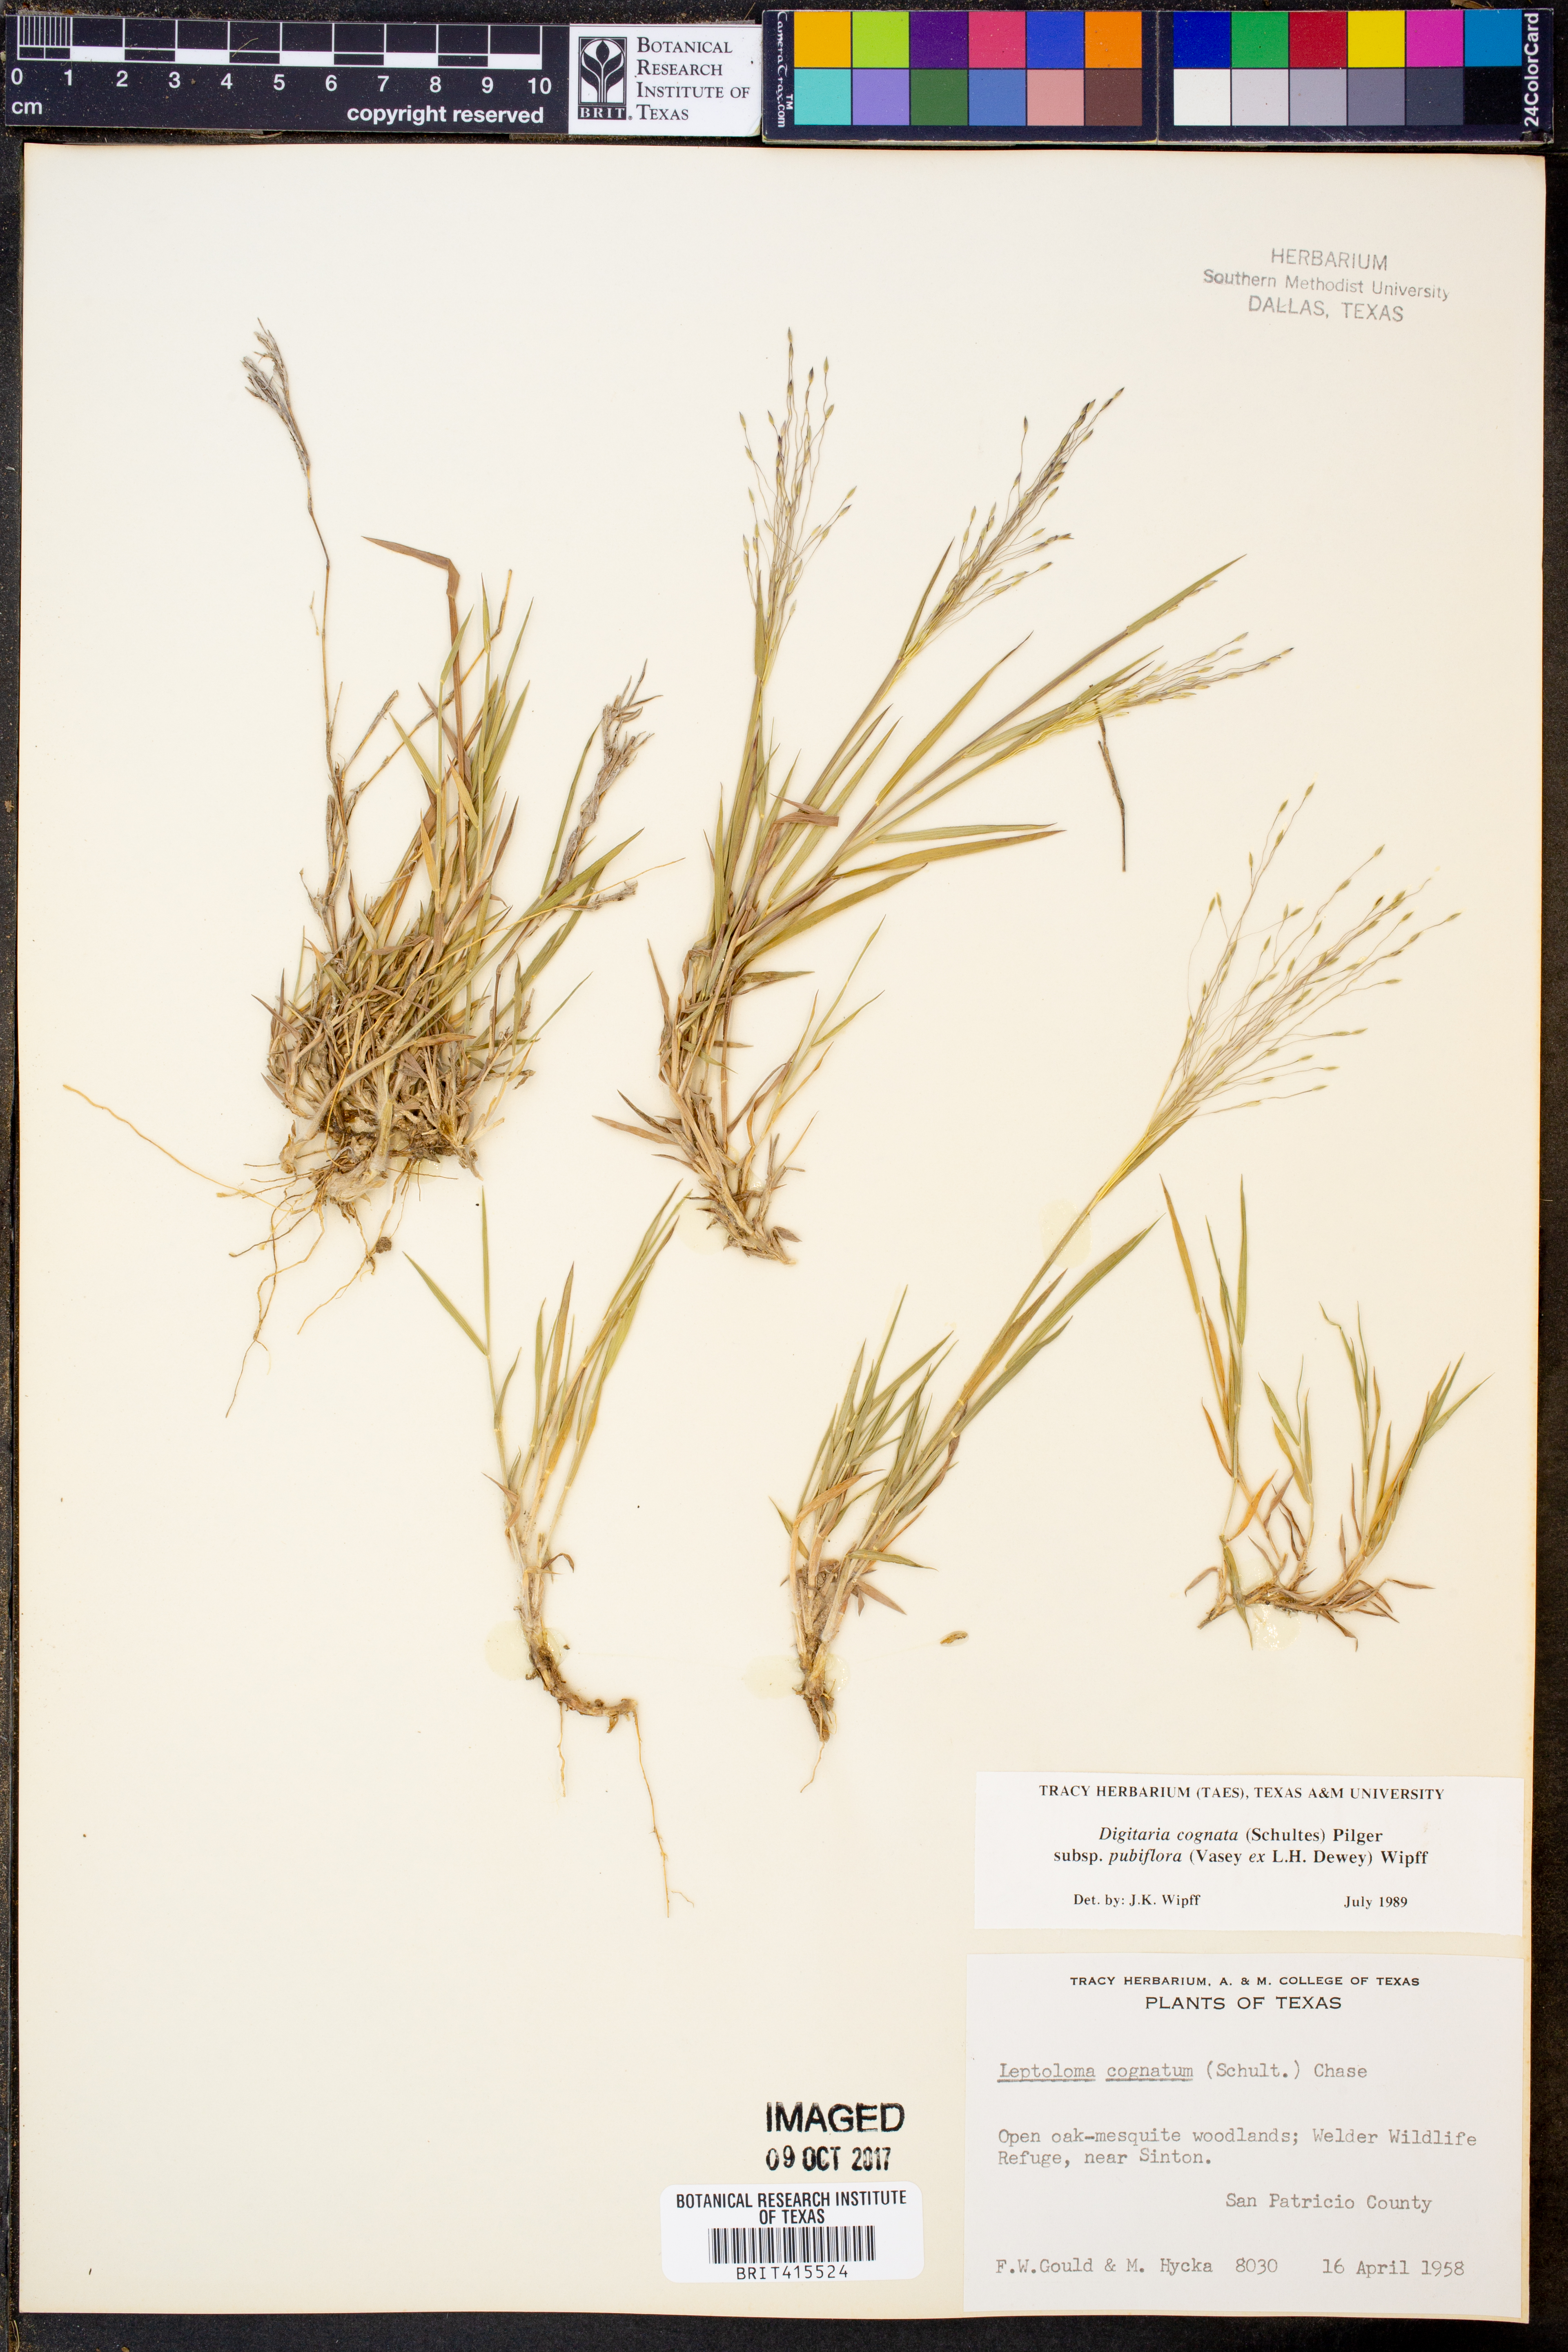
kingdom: Plantae
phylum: Tracheophyta
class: Liliopsida
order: Poales
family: Poaceae
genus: Digitaria
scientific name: Digitaria cognata
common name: Fall witchgrass
